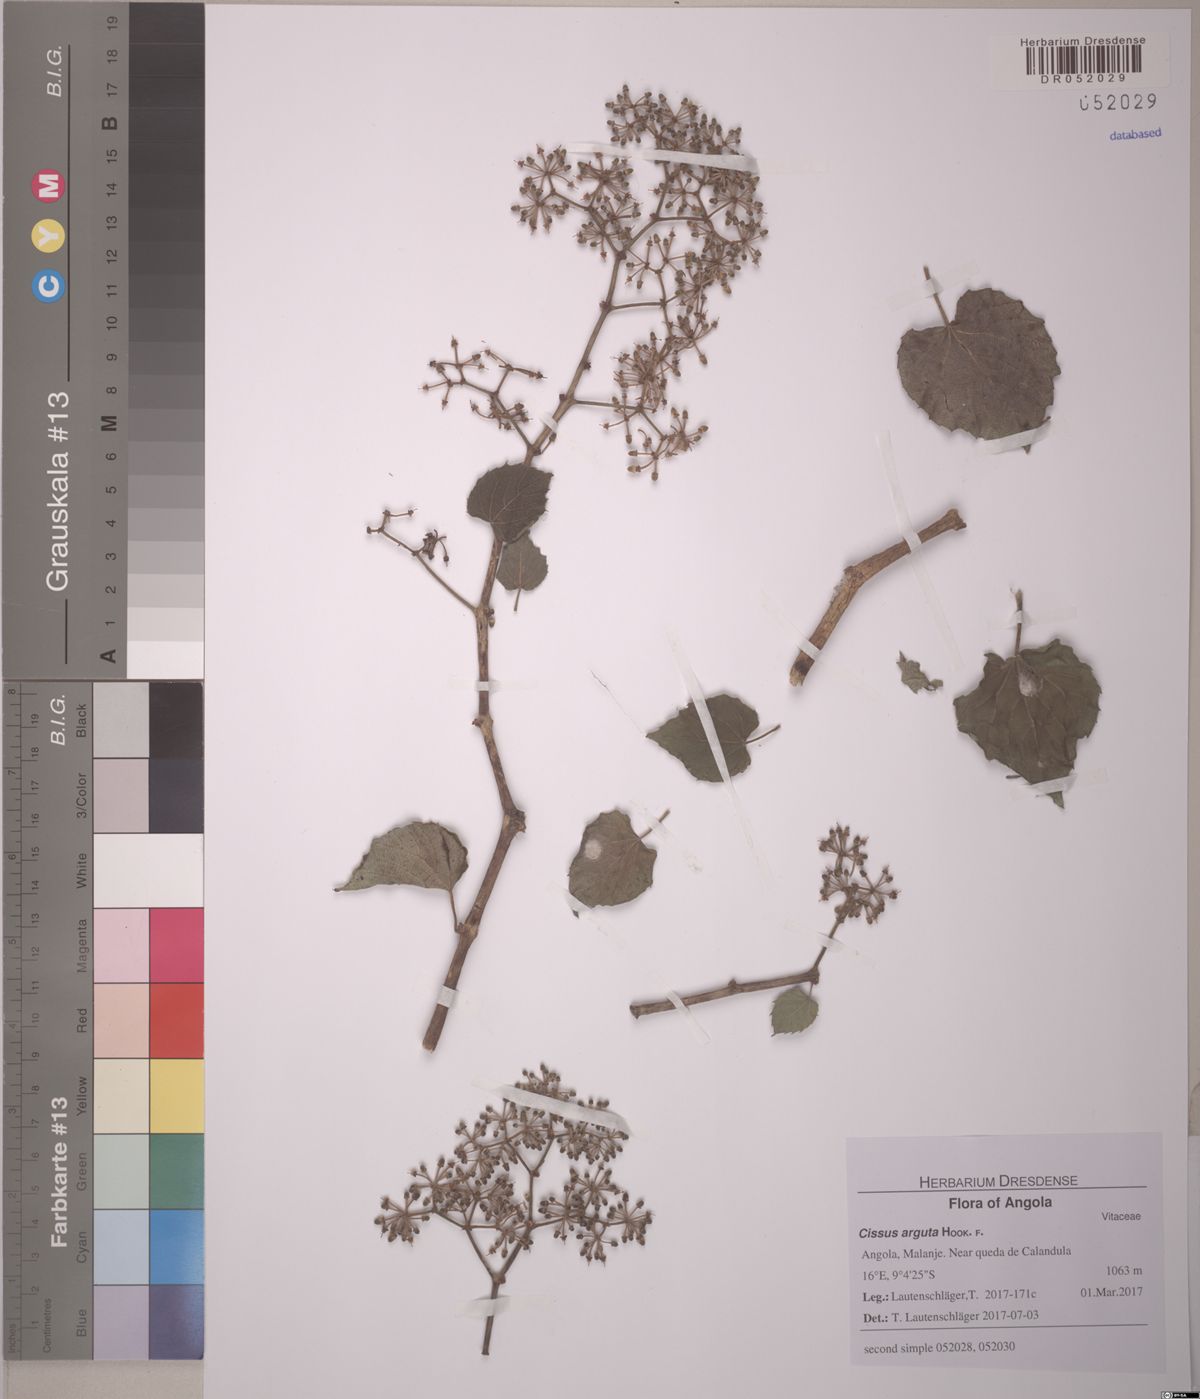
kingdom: Plantae
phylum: Tracheophyta
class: Magnoliopsida
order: Vitales
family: Vitaceae
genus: Cissus
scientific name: Cissus arguta
